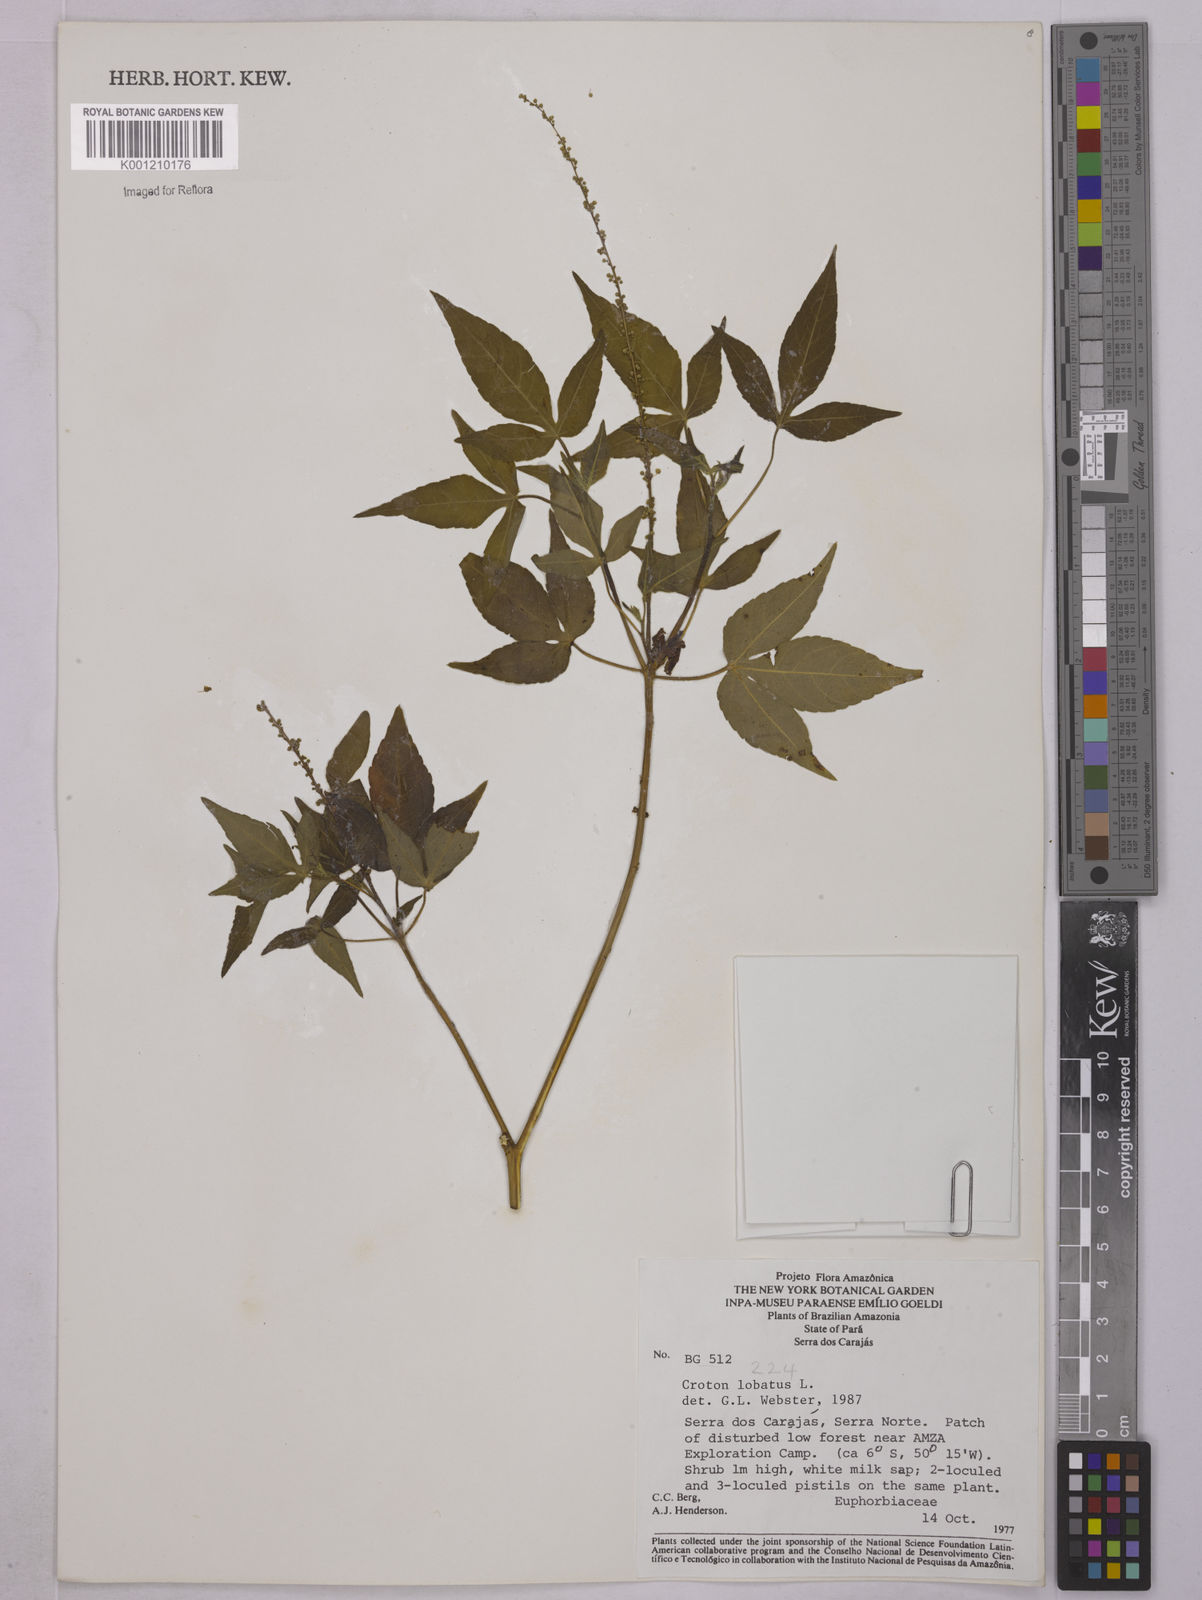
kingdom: Plantae
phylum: Tracheophyta
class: Magnoliopsida
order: Malpighiales
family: Euphorbiaceae
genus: Astraea
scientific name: Astraea lobata
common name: Lobed croton
